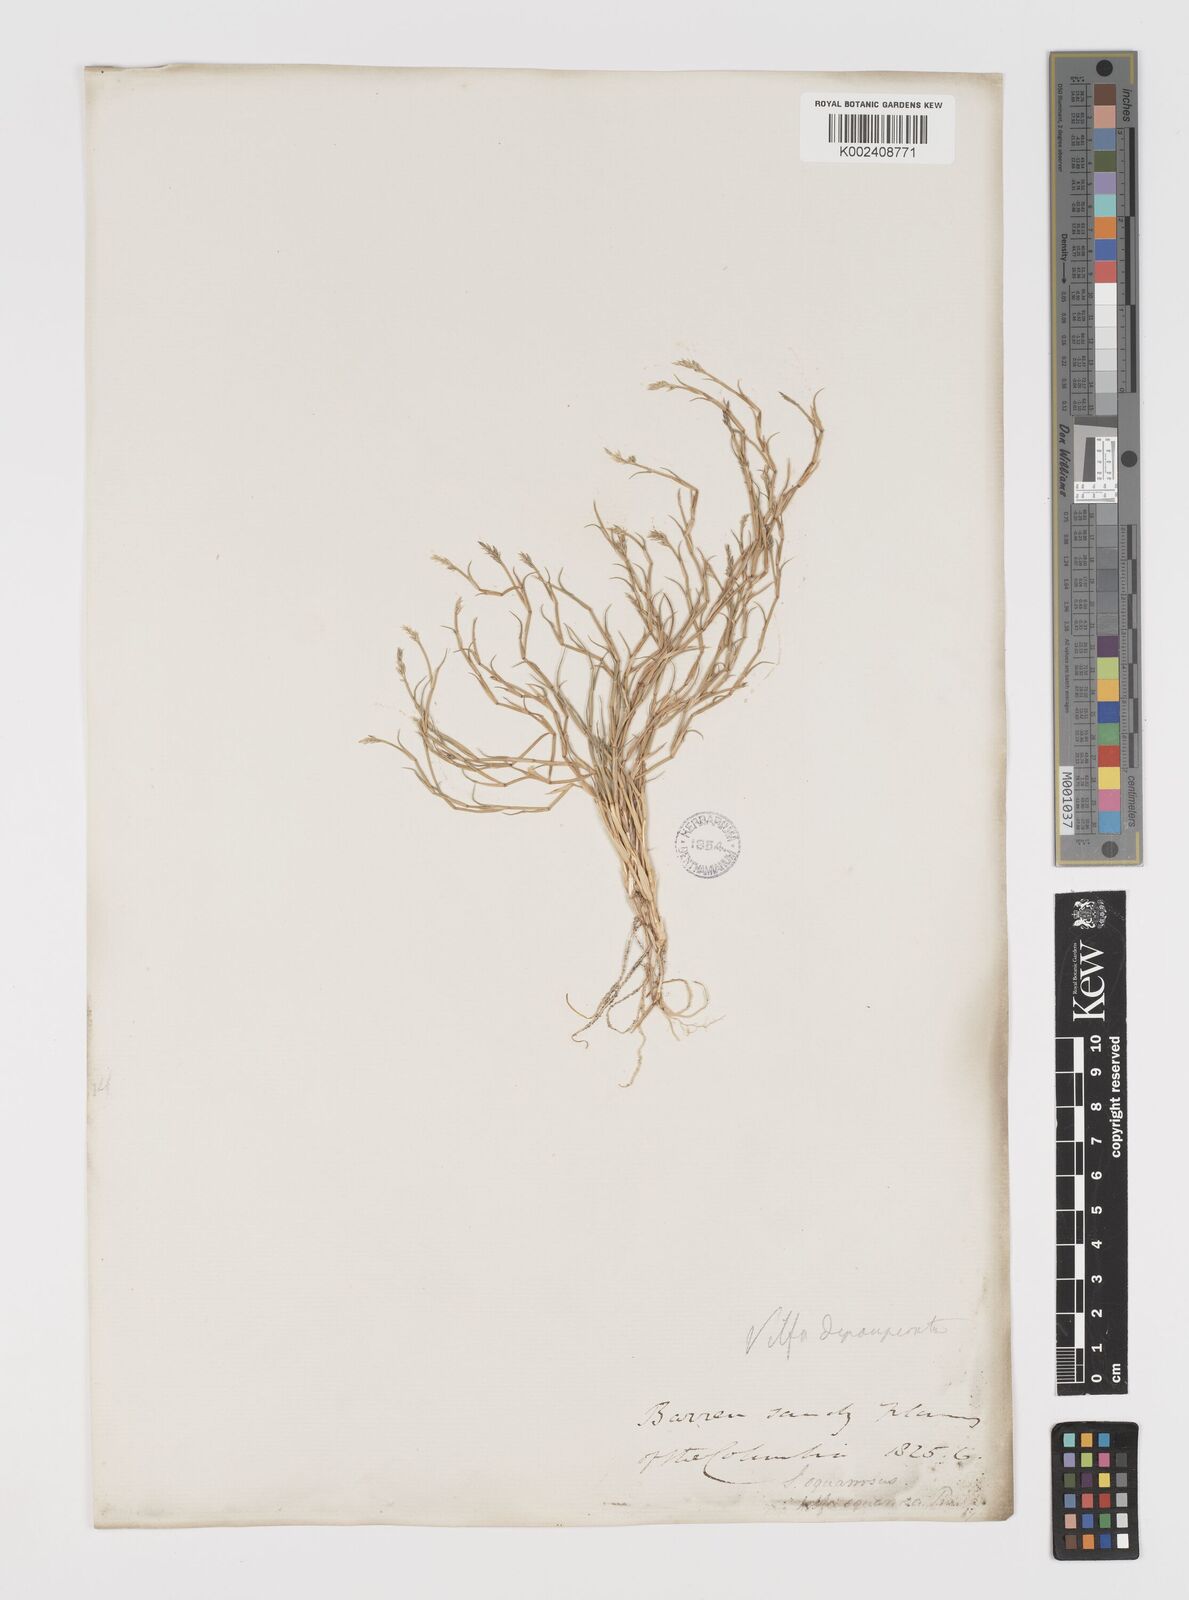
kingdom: Plantae
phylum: Tracheophyta
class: Liliopsida
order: Poales
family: Poaceae
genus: Muhlenbergia
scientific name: Muhlenbergia richardsonis
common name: Mat muhly
